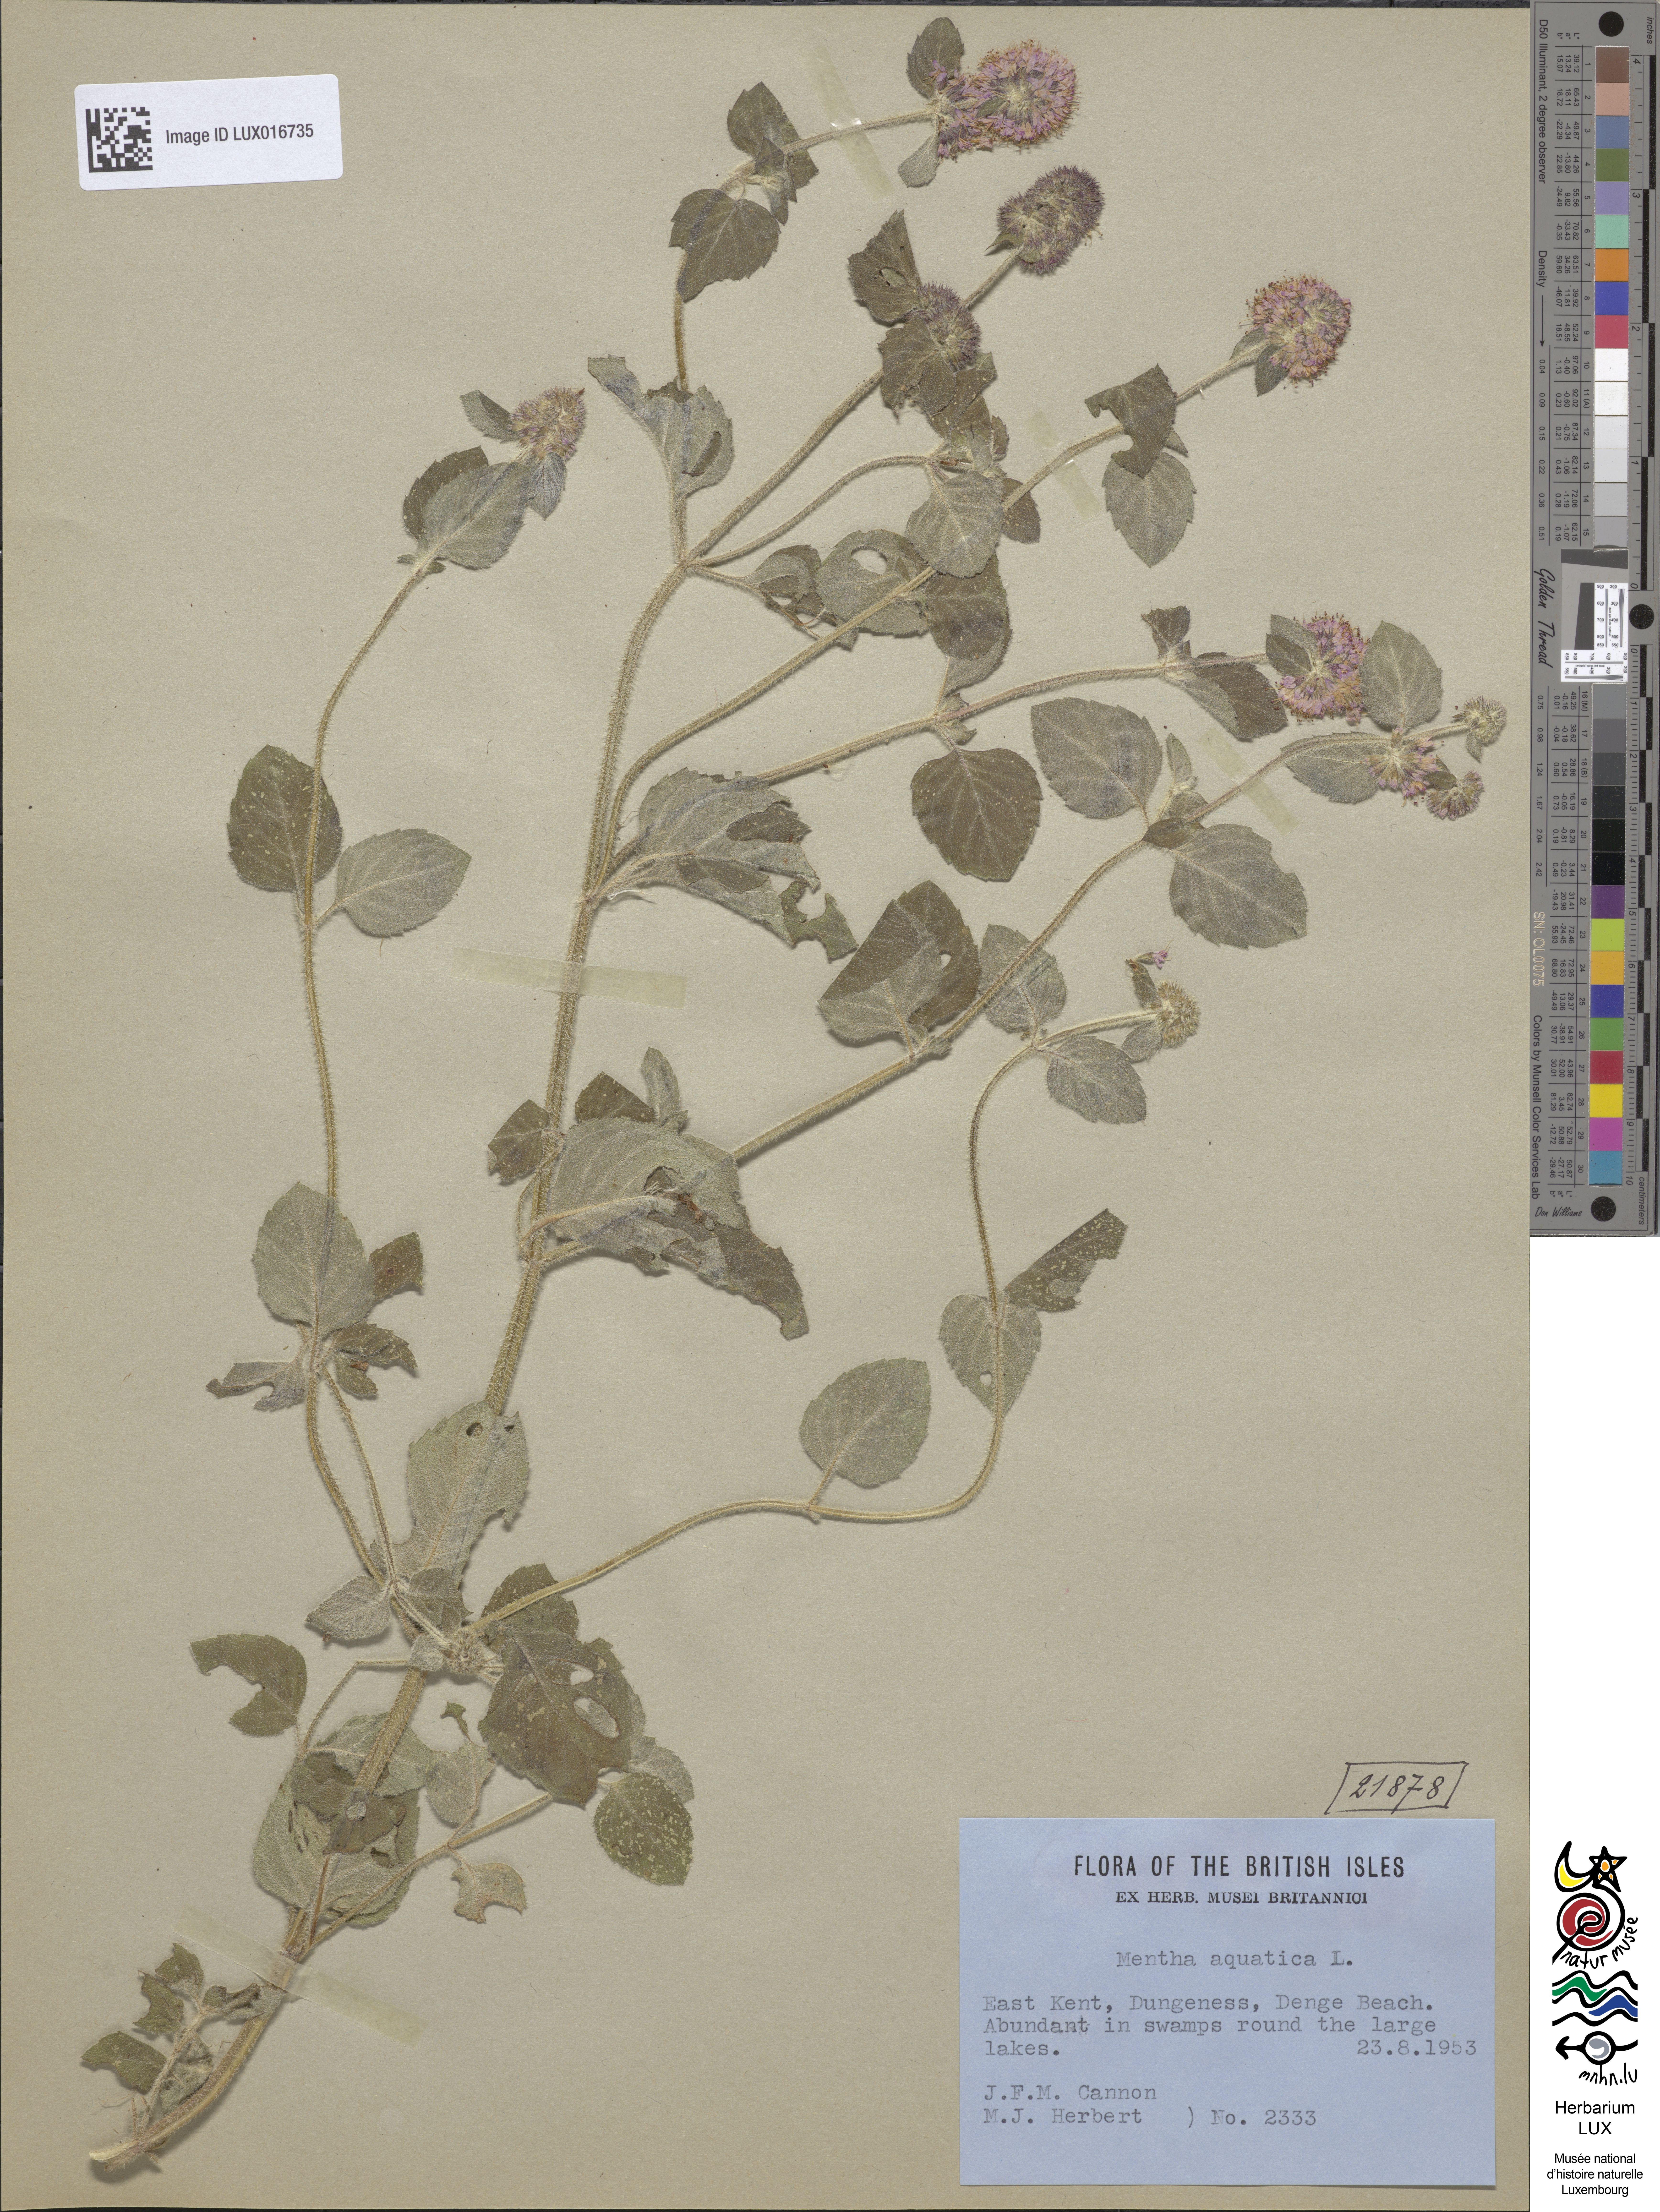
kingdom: Plantae
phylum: Tracheophyta
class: Magnoliopsida
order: Lamiales
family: Lamiaceae
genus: Mentha
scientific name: Mentha aquatica
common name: Water mint
